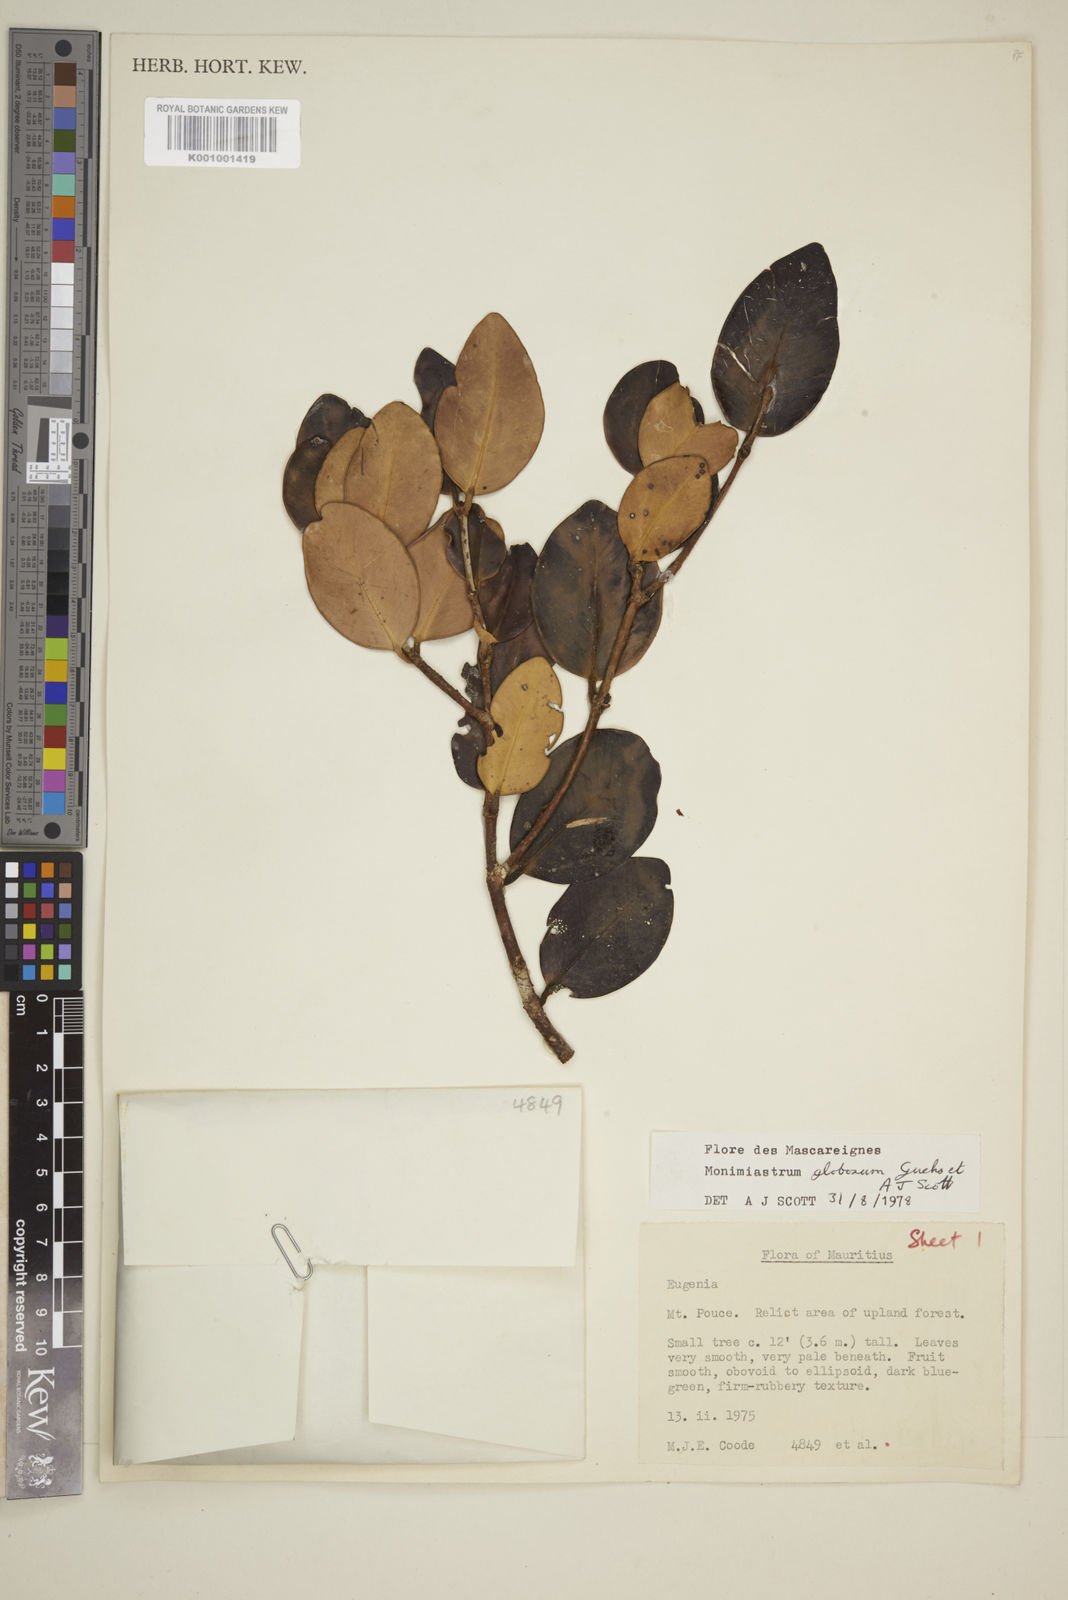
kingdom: Plantae
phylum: Tracheophyta
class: Magnoliopsida
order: Myrtales
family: Myrtaceae
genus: Eugenia
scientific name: Eugenia kanakana
